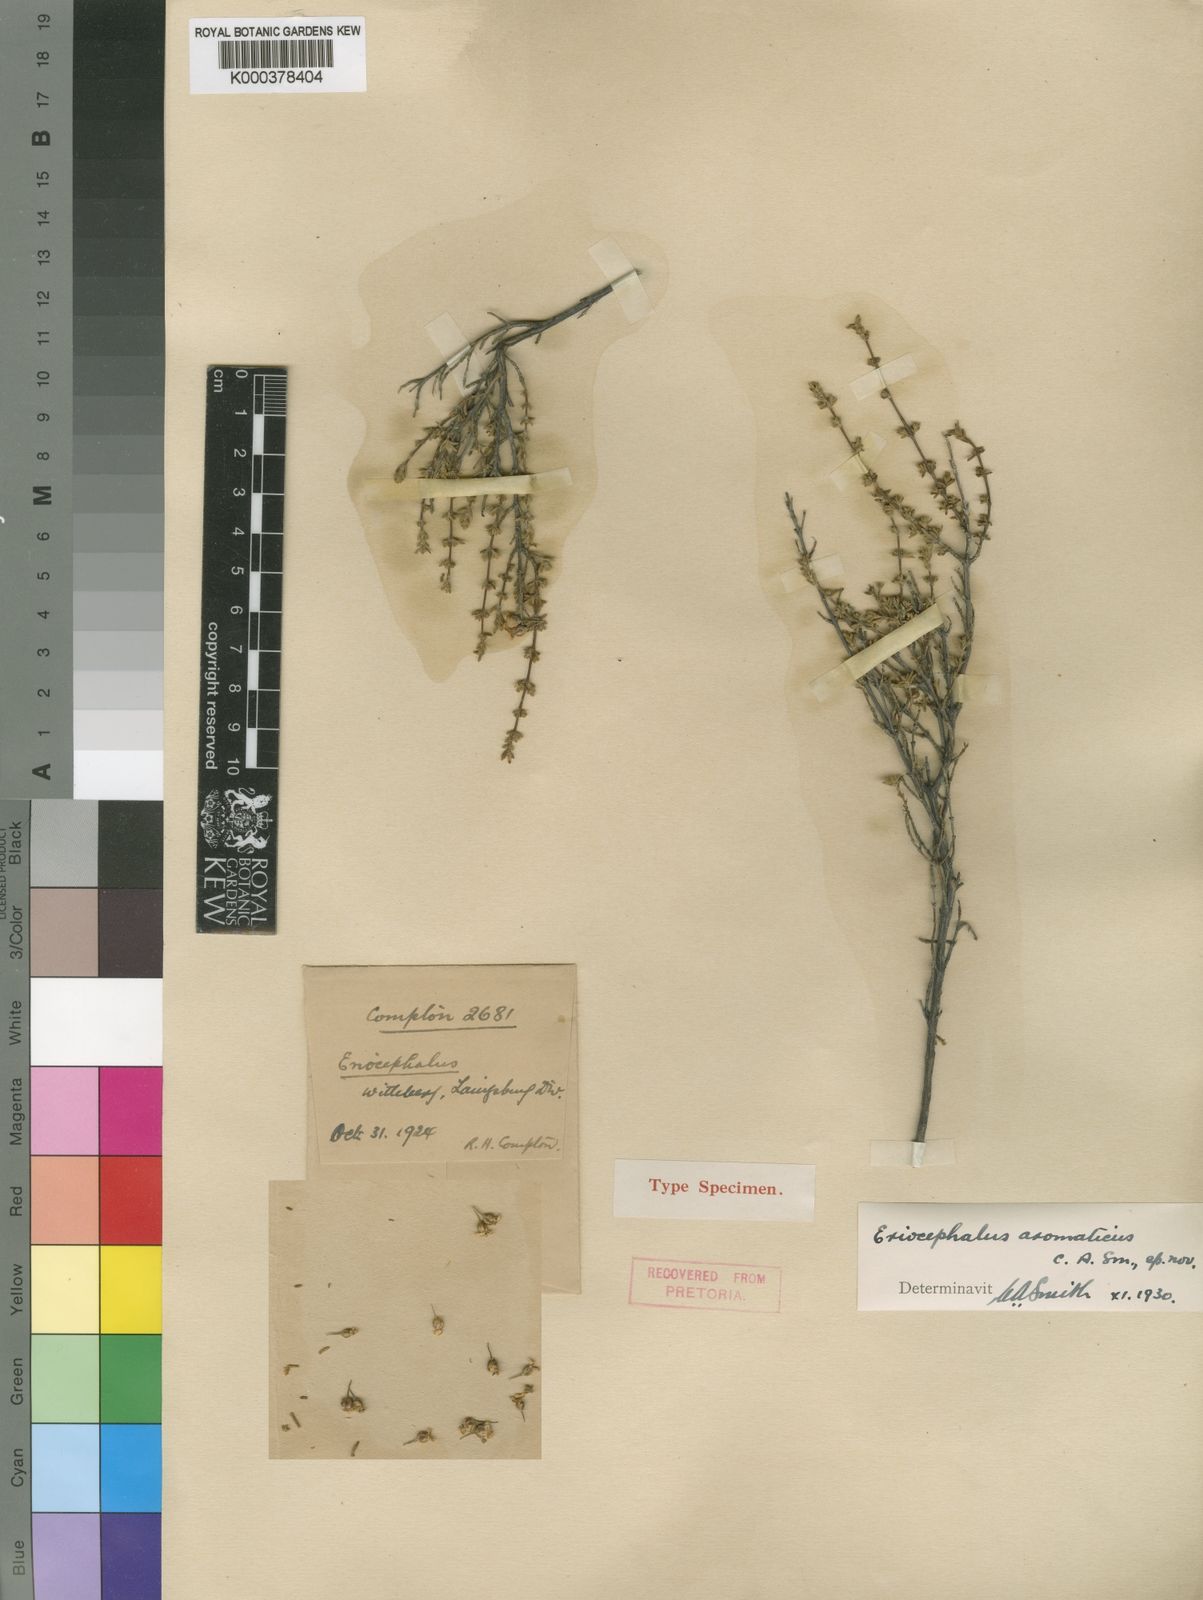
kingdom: Plantae
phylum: Tracheophyta
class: Magnoliopsida
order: Asterales
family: Asteraceae
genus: Eriocephalus
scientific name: Eriocephalus aromaticus
